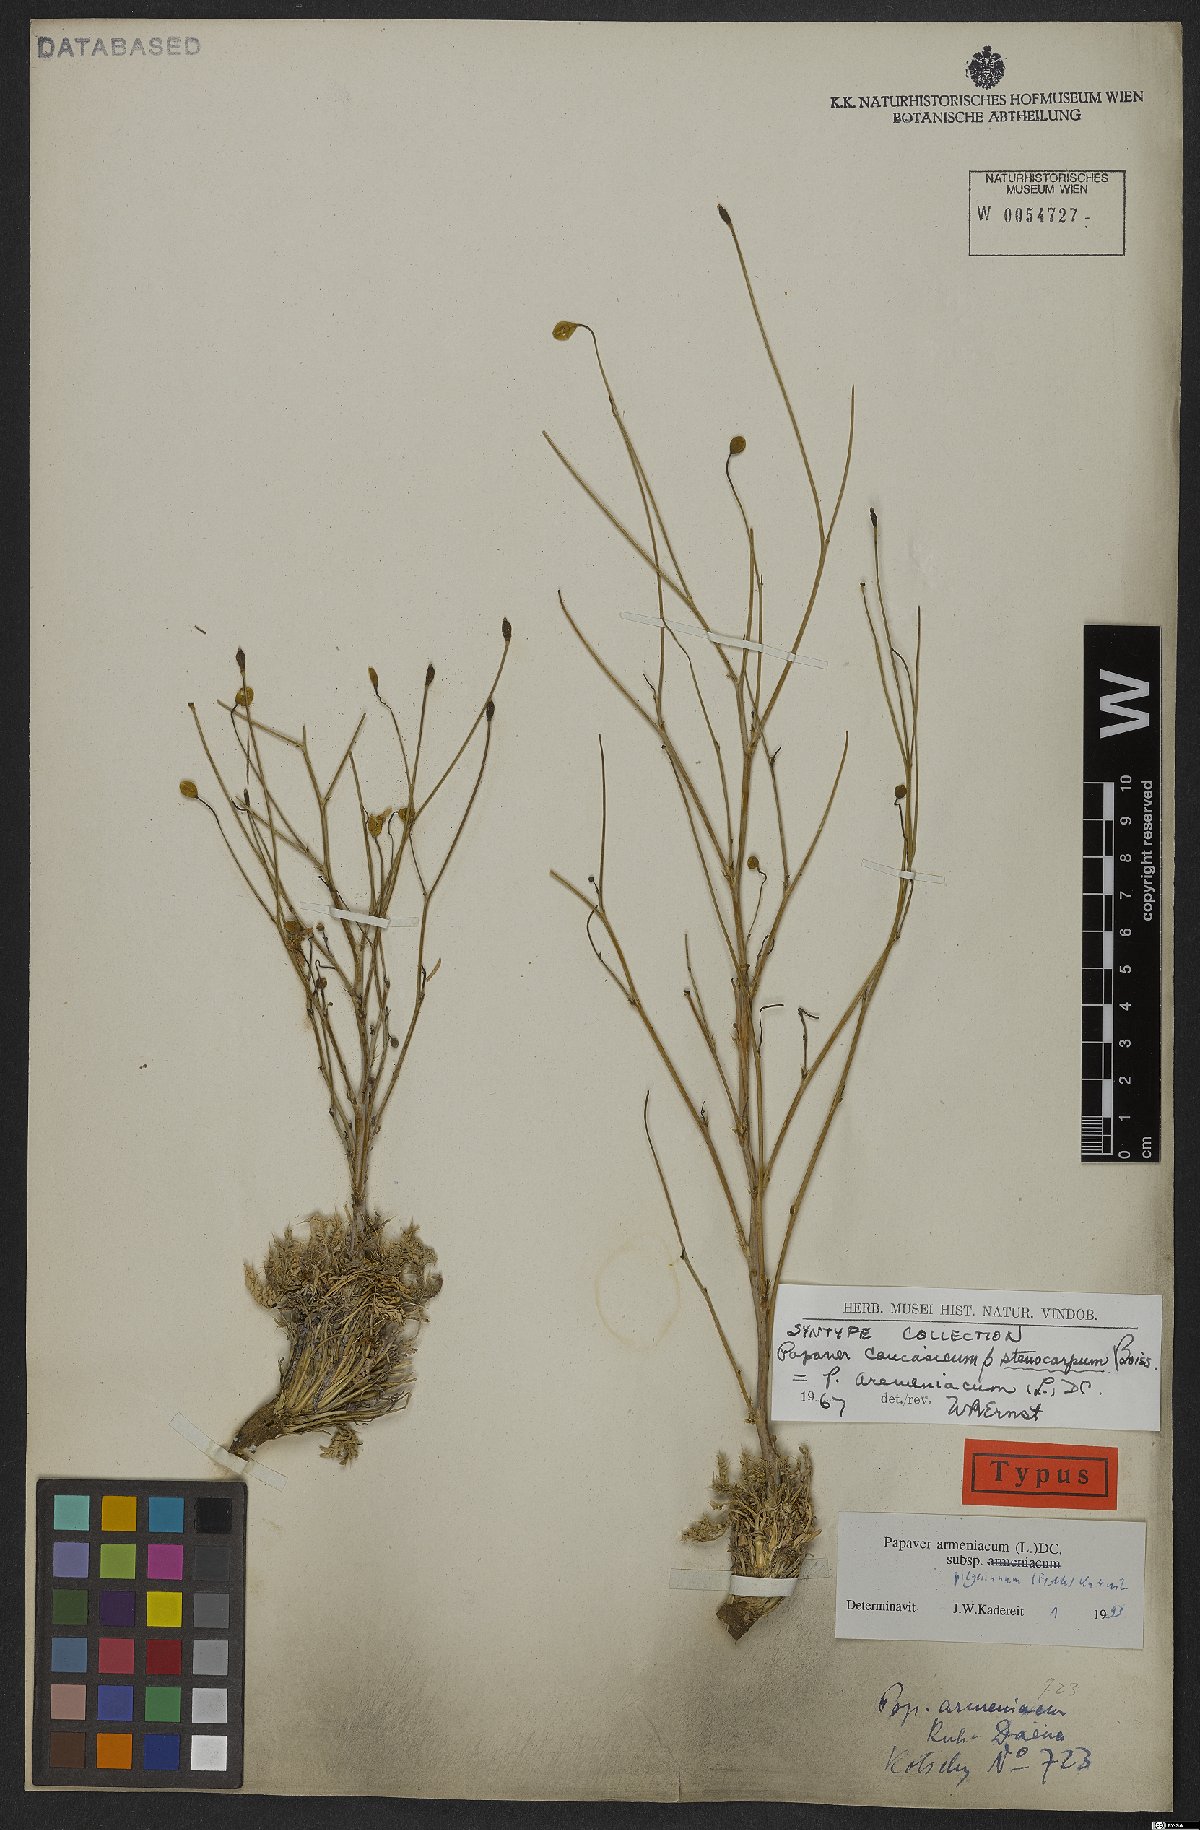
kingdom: Plantae
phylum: Tracheophyta
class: Magnoliopsida
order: Ranunculales
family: Papaveraceae
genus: Papaver
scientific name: Papaver armeniacum
